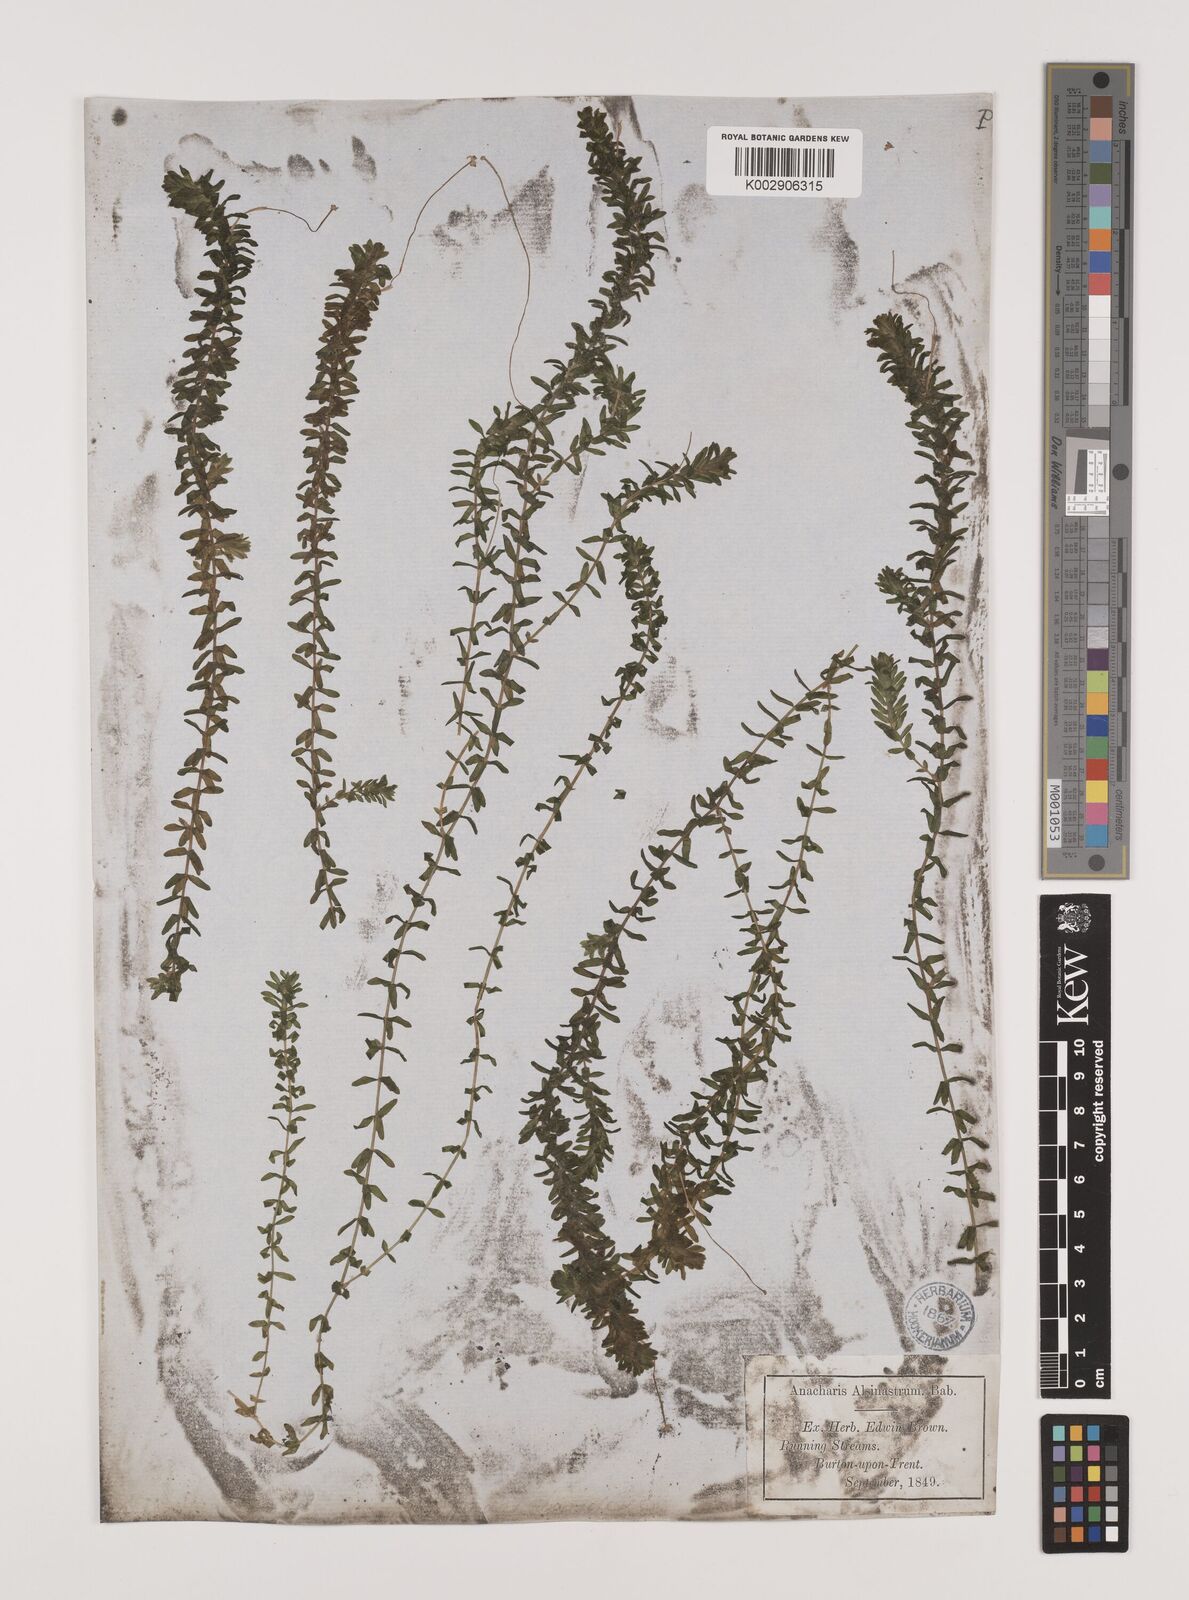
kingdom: Plantae
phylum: Tracheophyta
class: Liliopsida
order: Alismatales
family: Hydrocharitaceae
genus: Elodea
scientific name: Elodea canadensis
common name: Canadian waterweed
